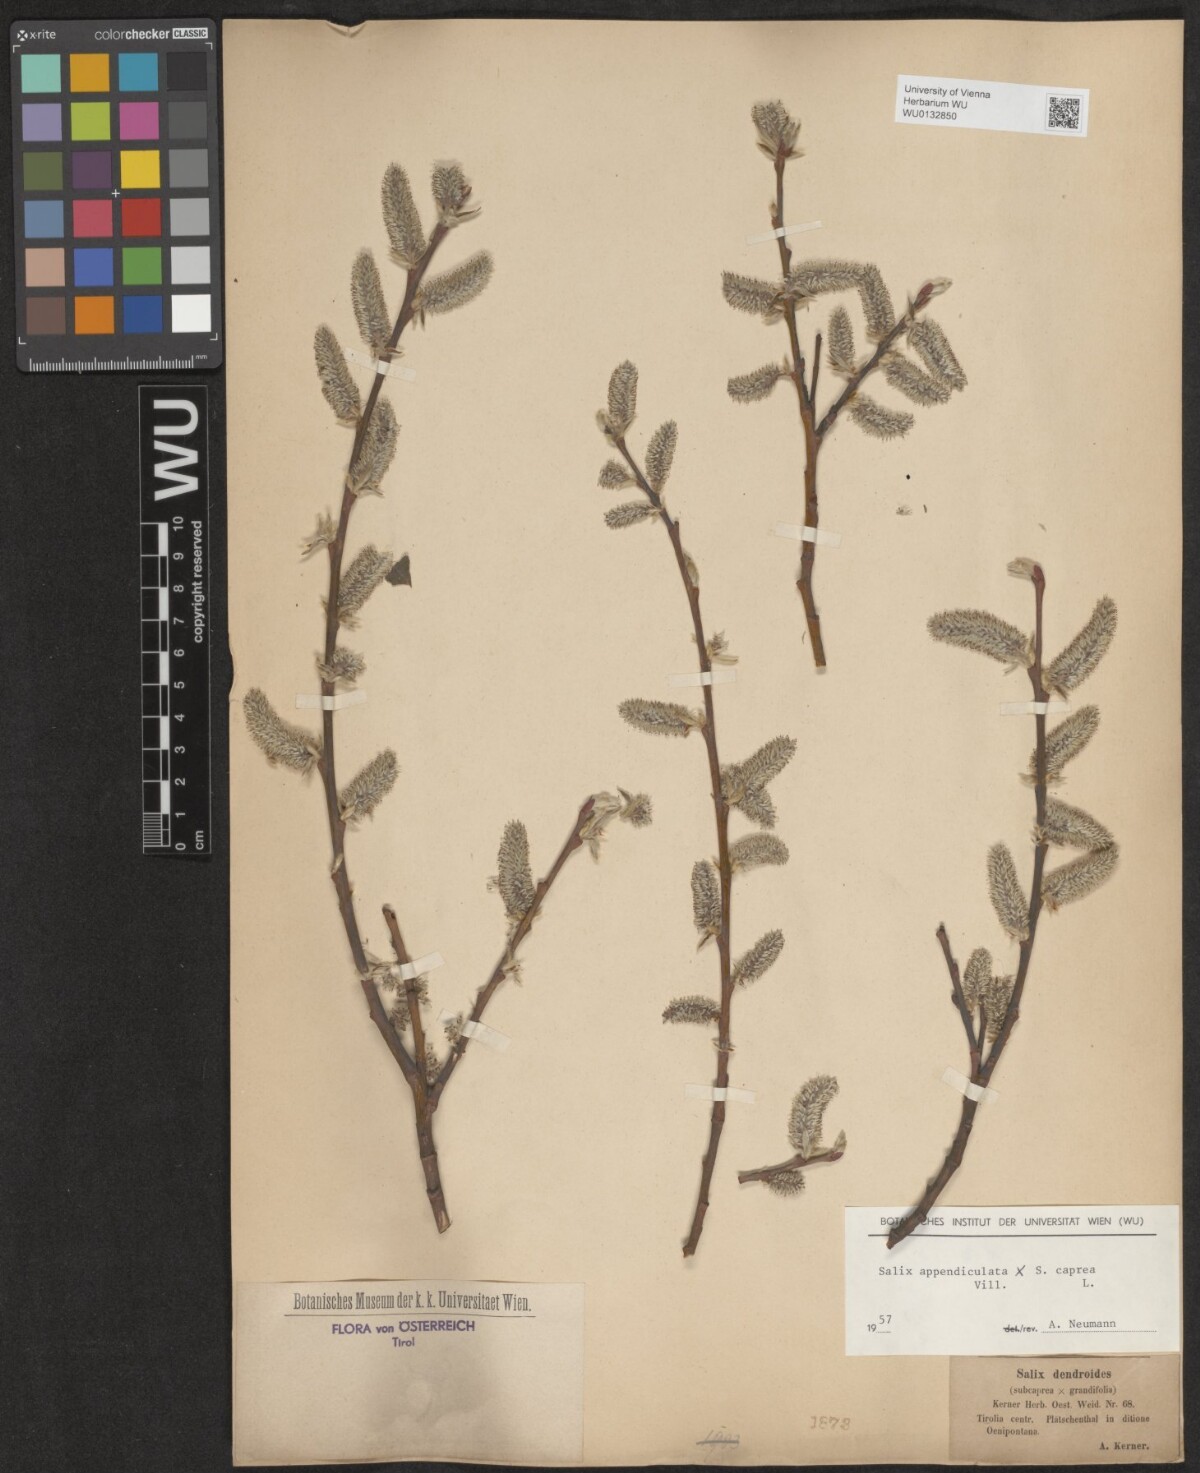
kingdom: Plantae
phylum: Tracheophyta
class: Magnoliopsida
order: Malpighiales
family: Salicaceae
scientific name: Salicaceae
